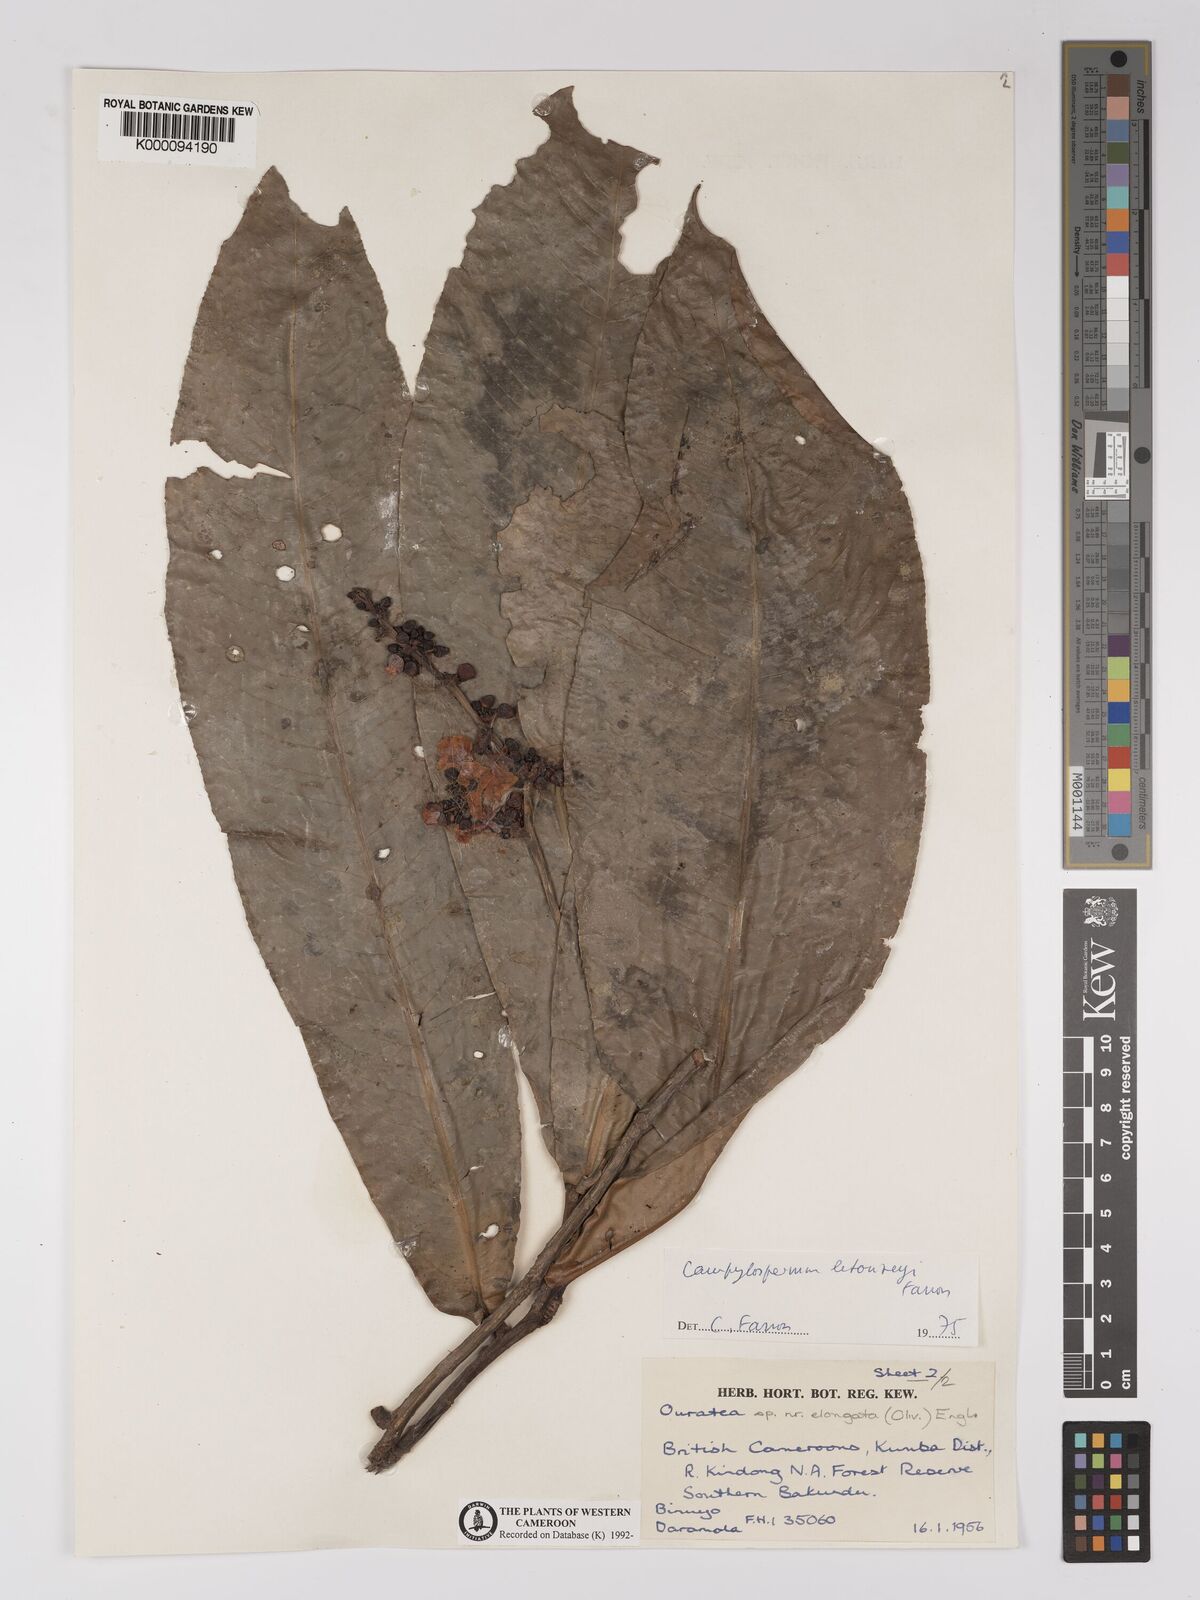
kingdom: Plantae
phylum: Tracheophyta
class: Magnoliopsida
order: Malpighiales
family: Ochnaceae
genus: Campylospermum
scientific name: Campylospermum letouzeyi
